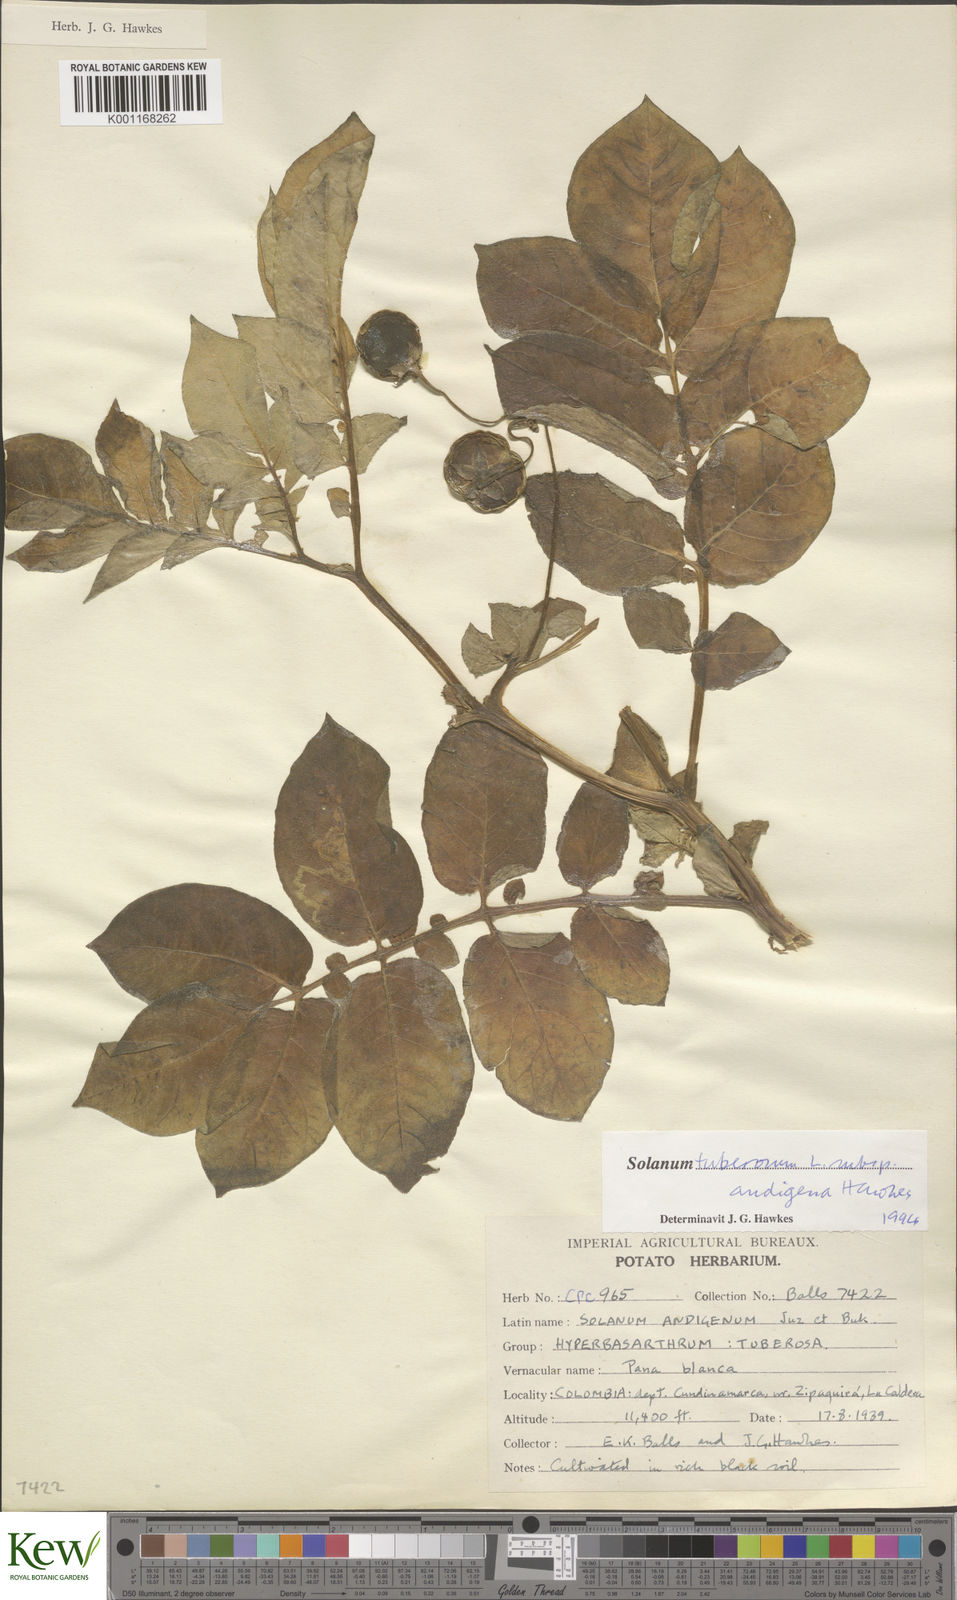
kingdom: Plantae
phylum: Tracheophyta
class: Magnoliopsida
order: Solanales
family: Solanaceae
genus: Solanum
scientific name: Solanum tuberosum
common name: Potato
